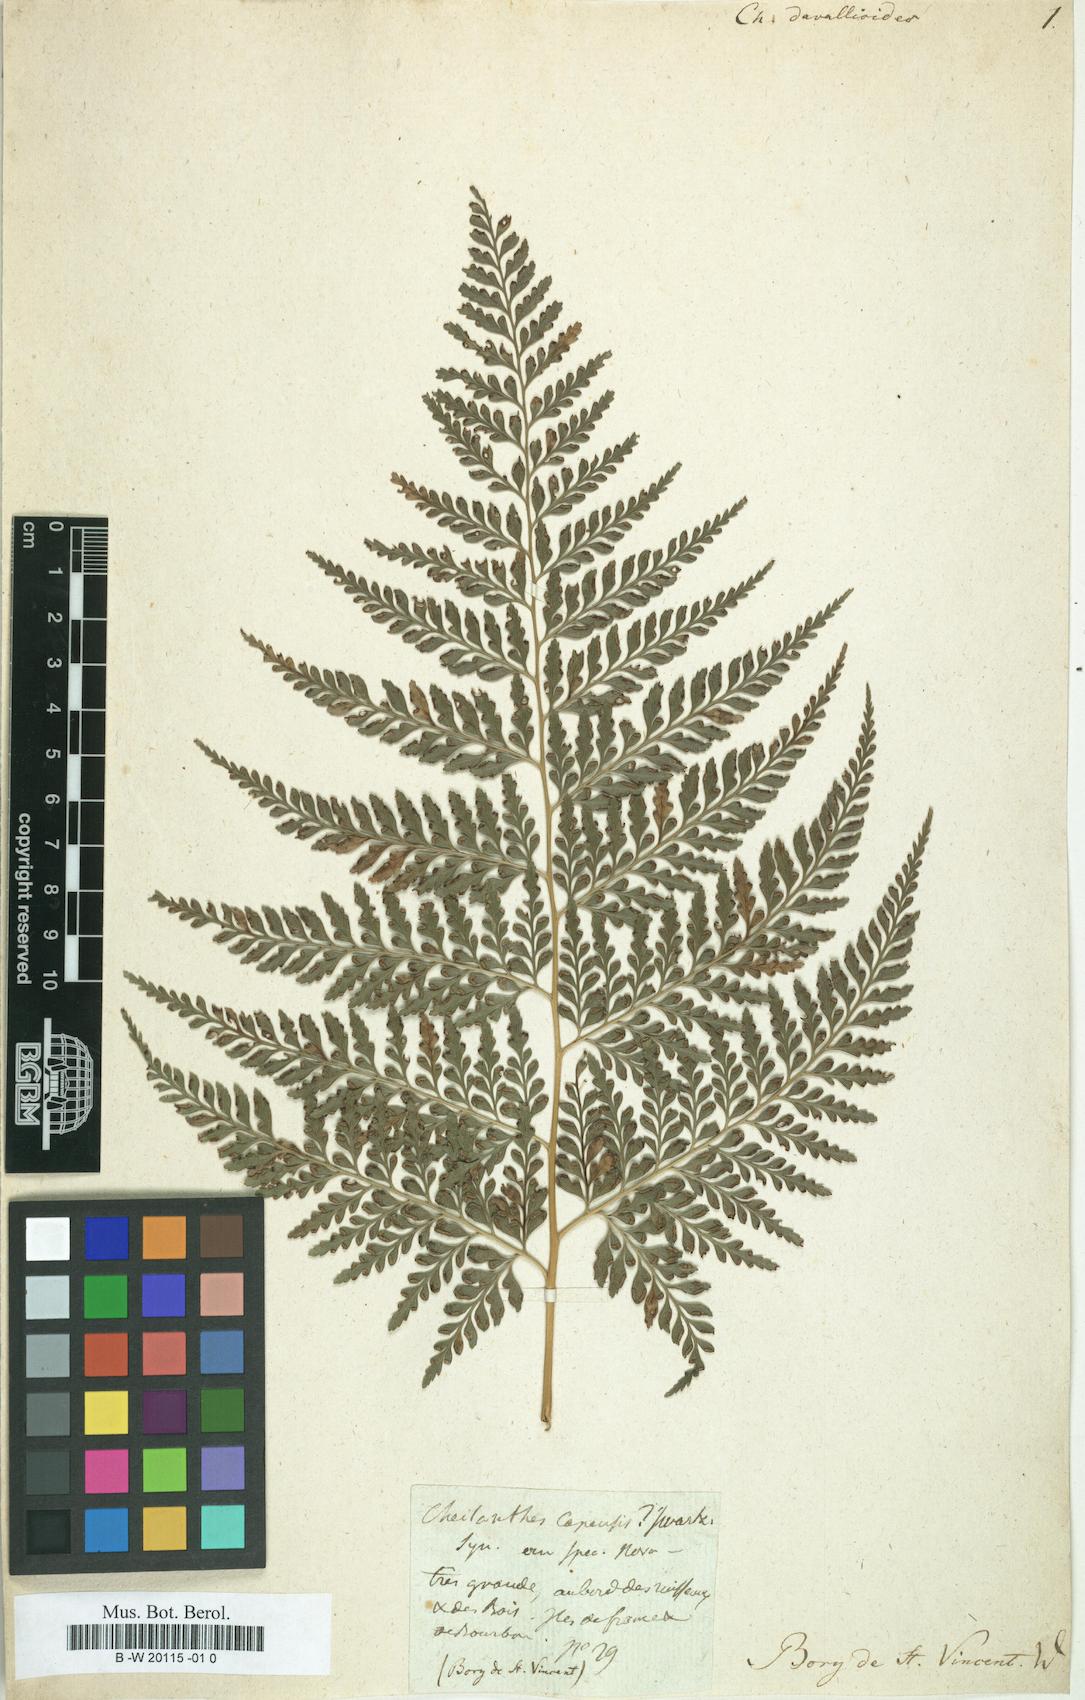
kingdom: Plantae
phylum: Tracheophyta
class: Polypodiopsida
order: Polypodiales
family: Pteridaceae
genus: Pteris
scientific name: Pteris pallens
